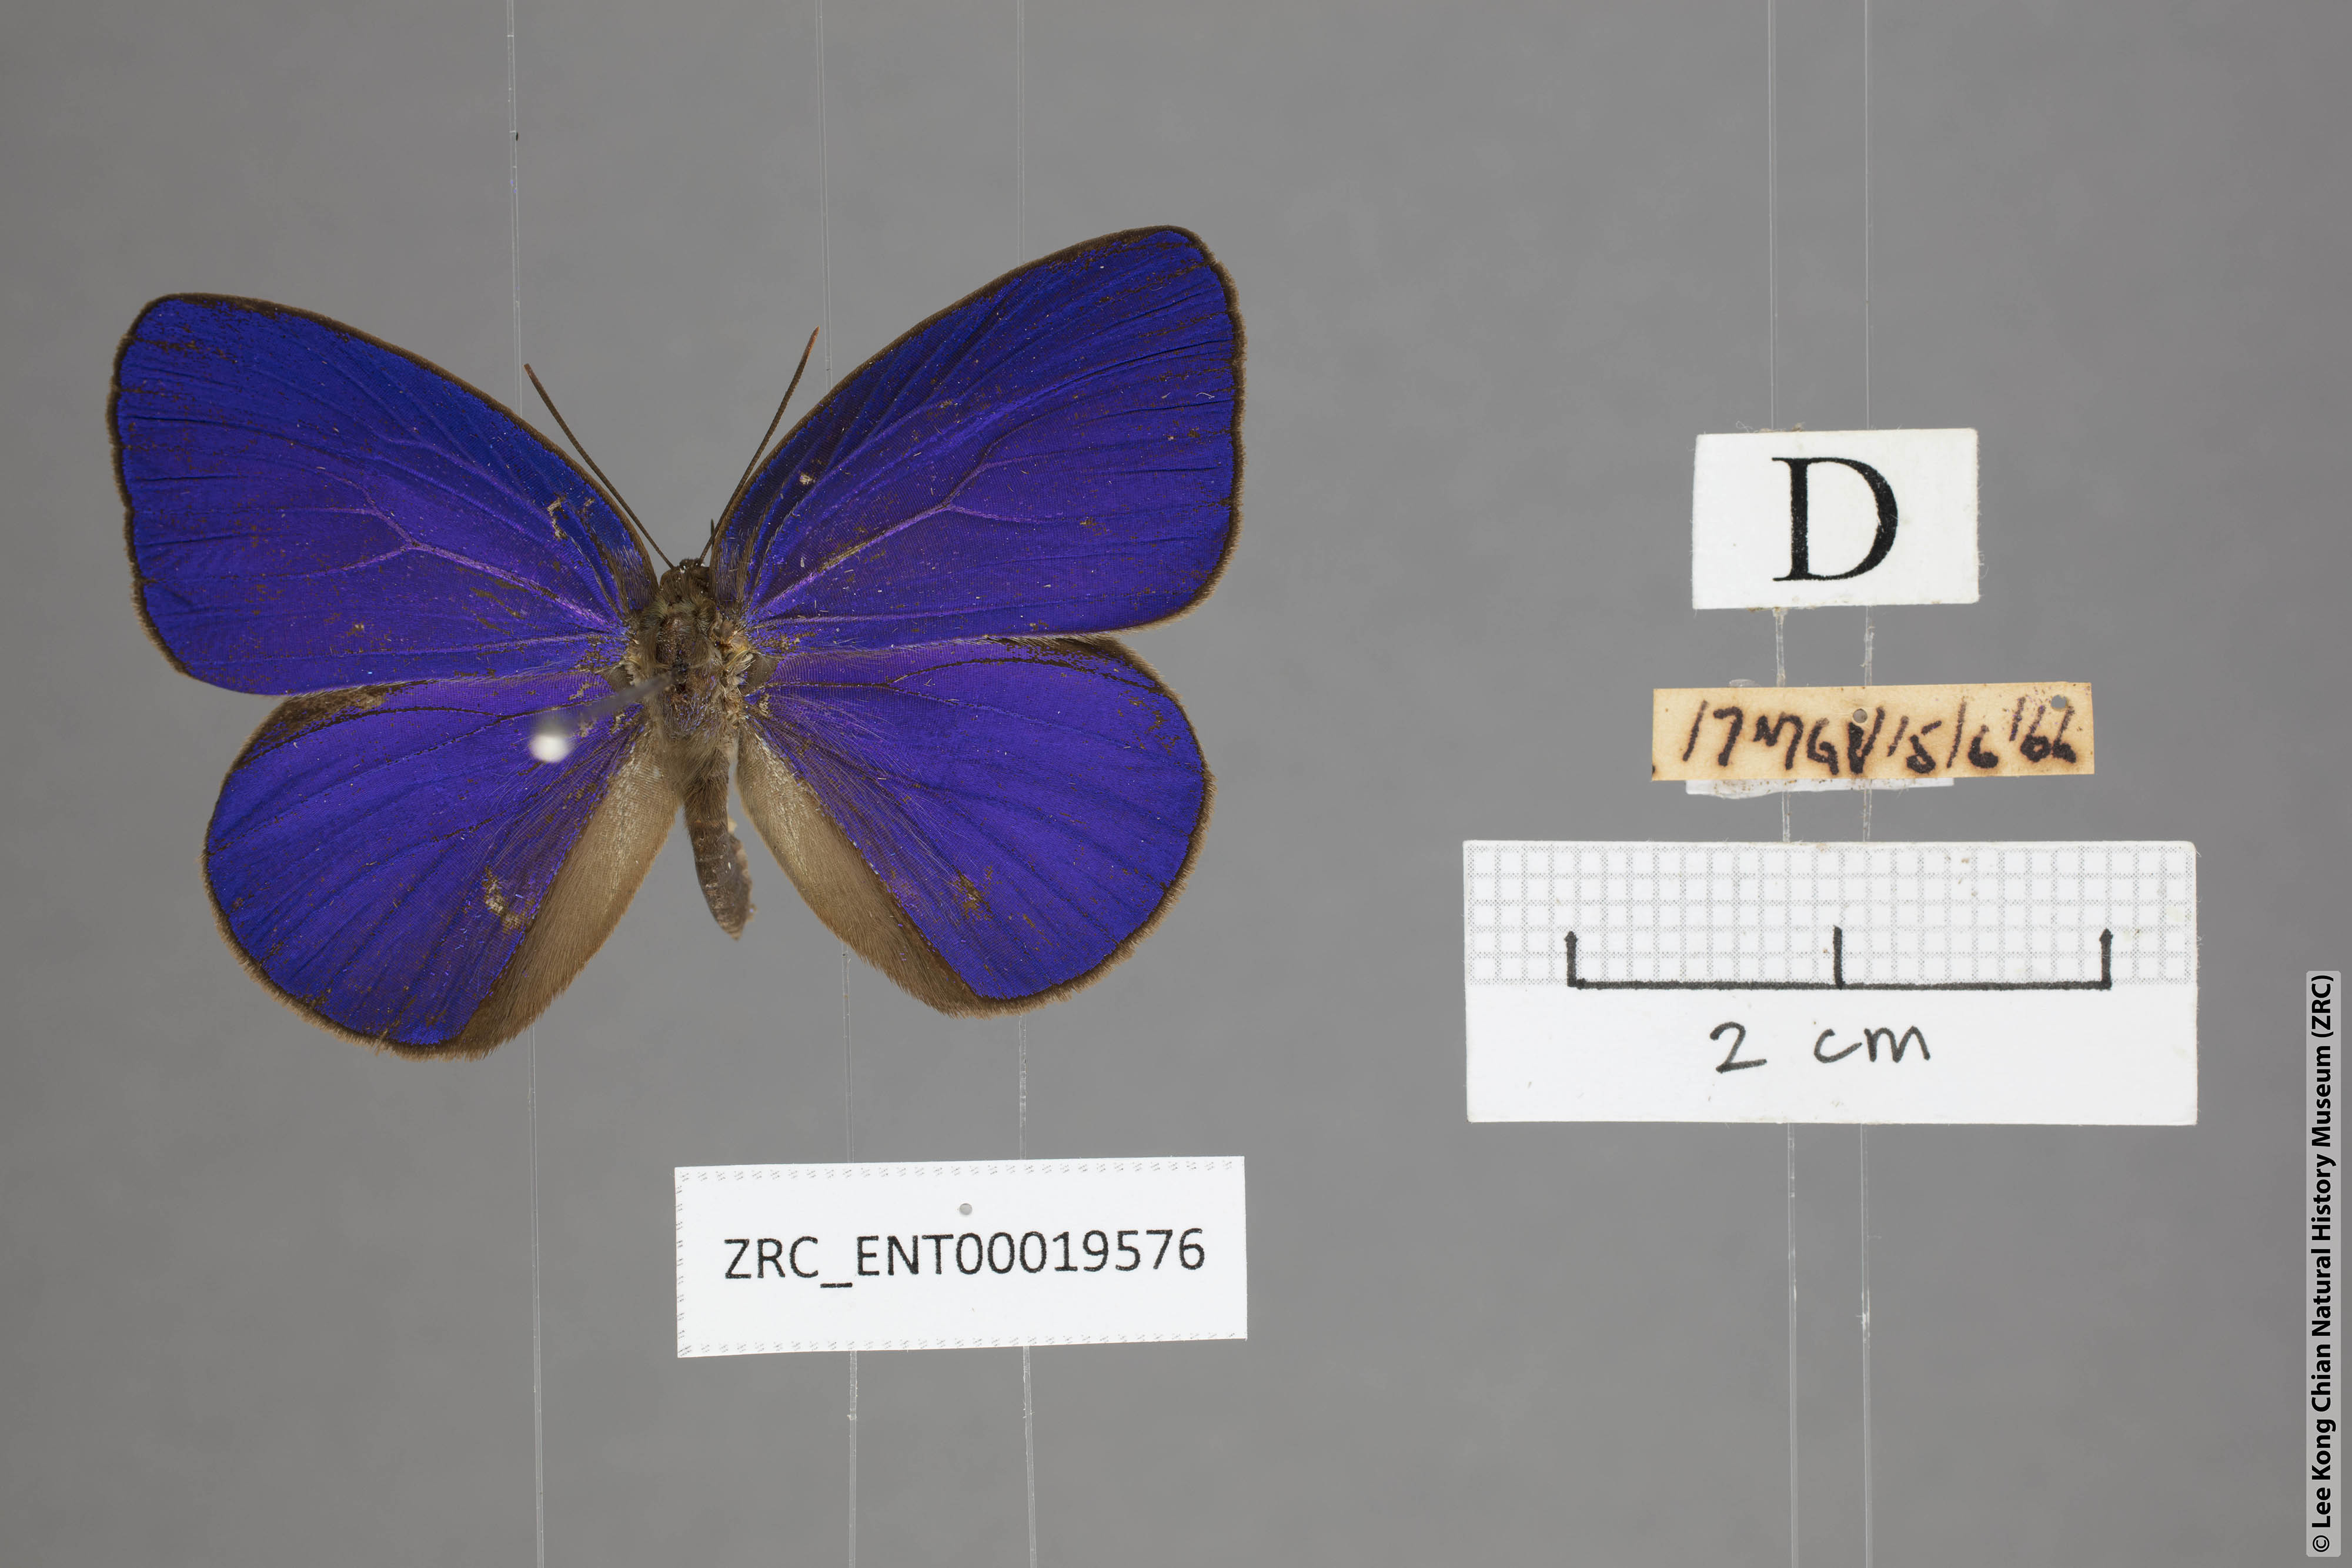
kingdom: Animalia
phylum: Arthropoda
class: Insecta
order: Lepidoptera
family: Lycaenidae
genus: Arhopala
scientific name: Arhopala inornata
